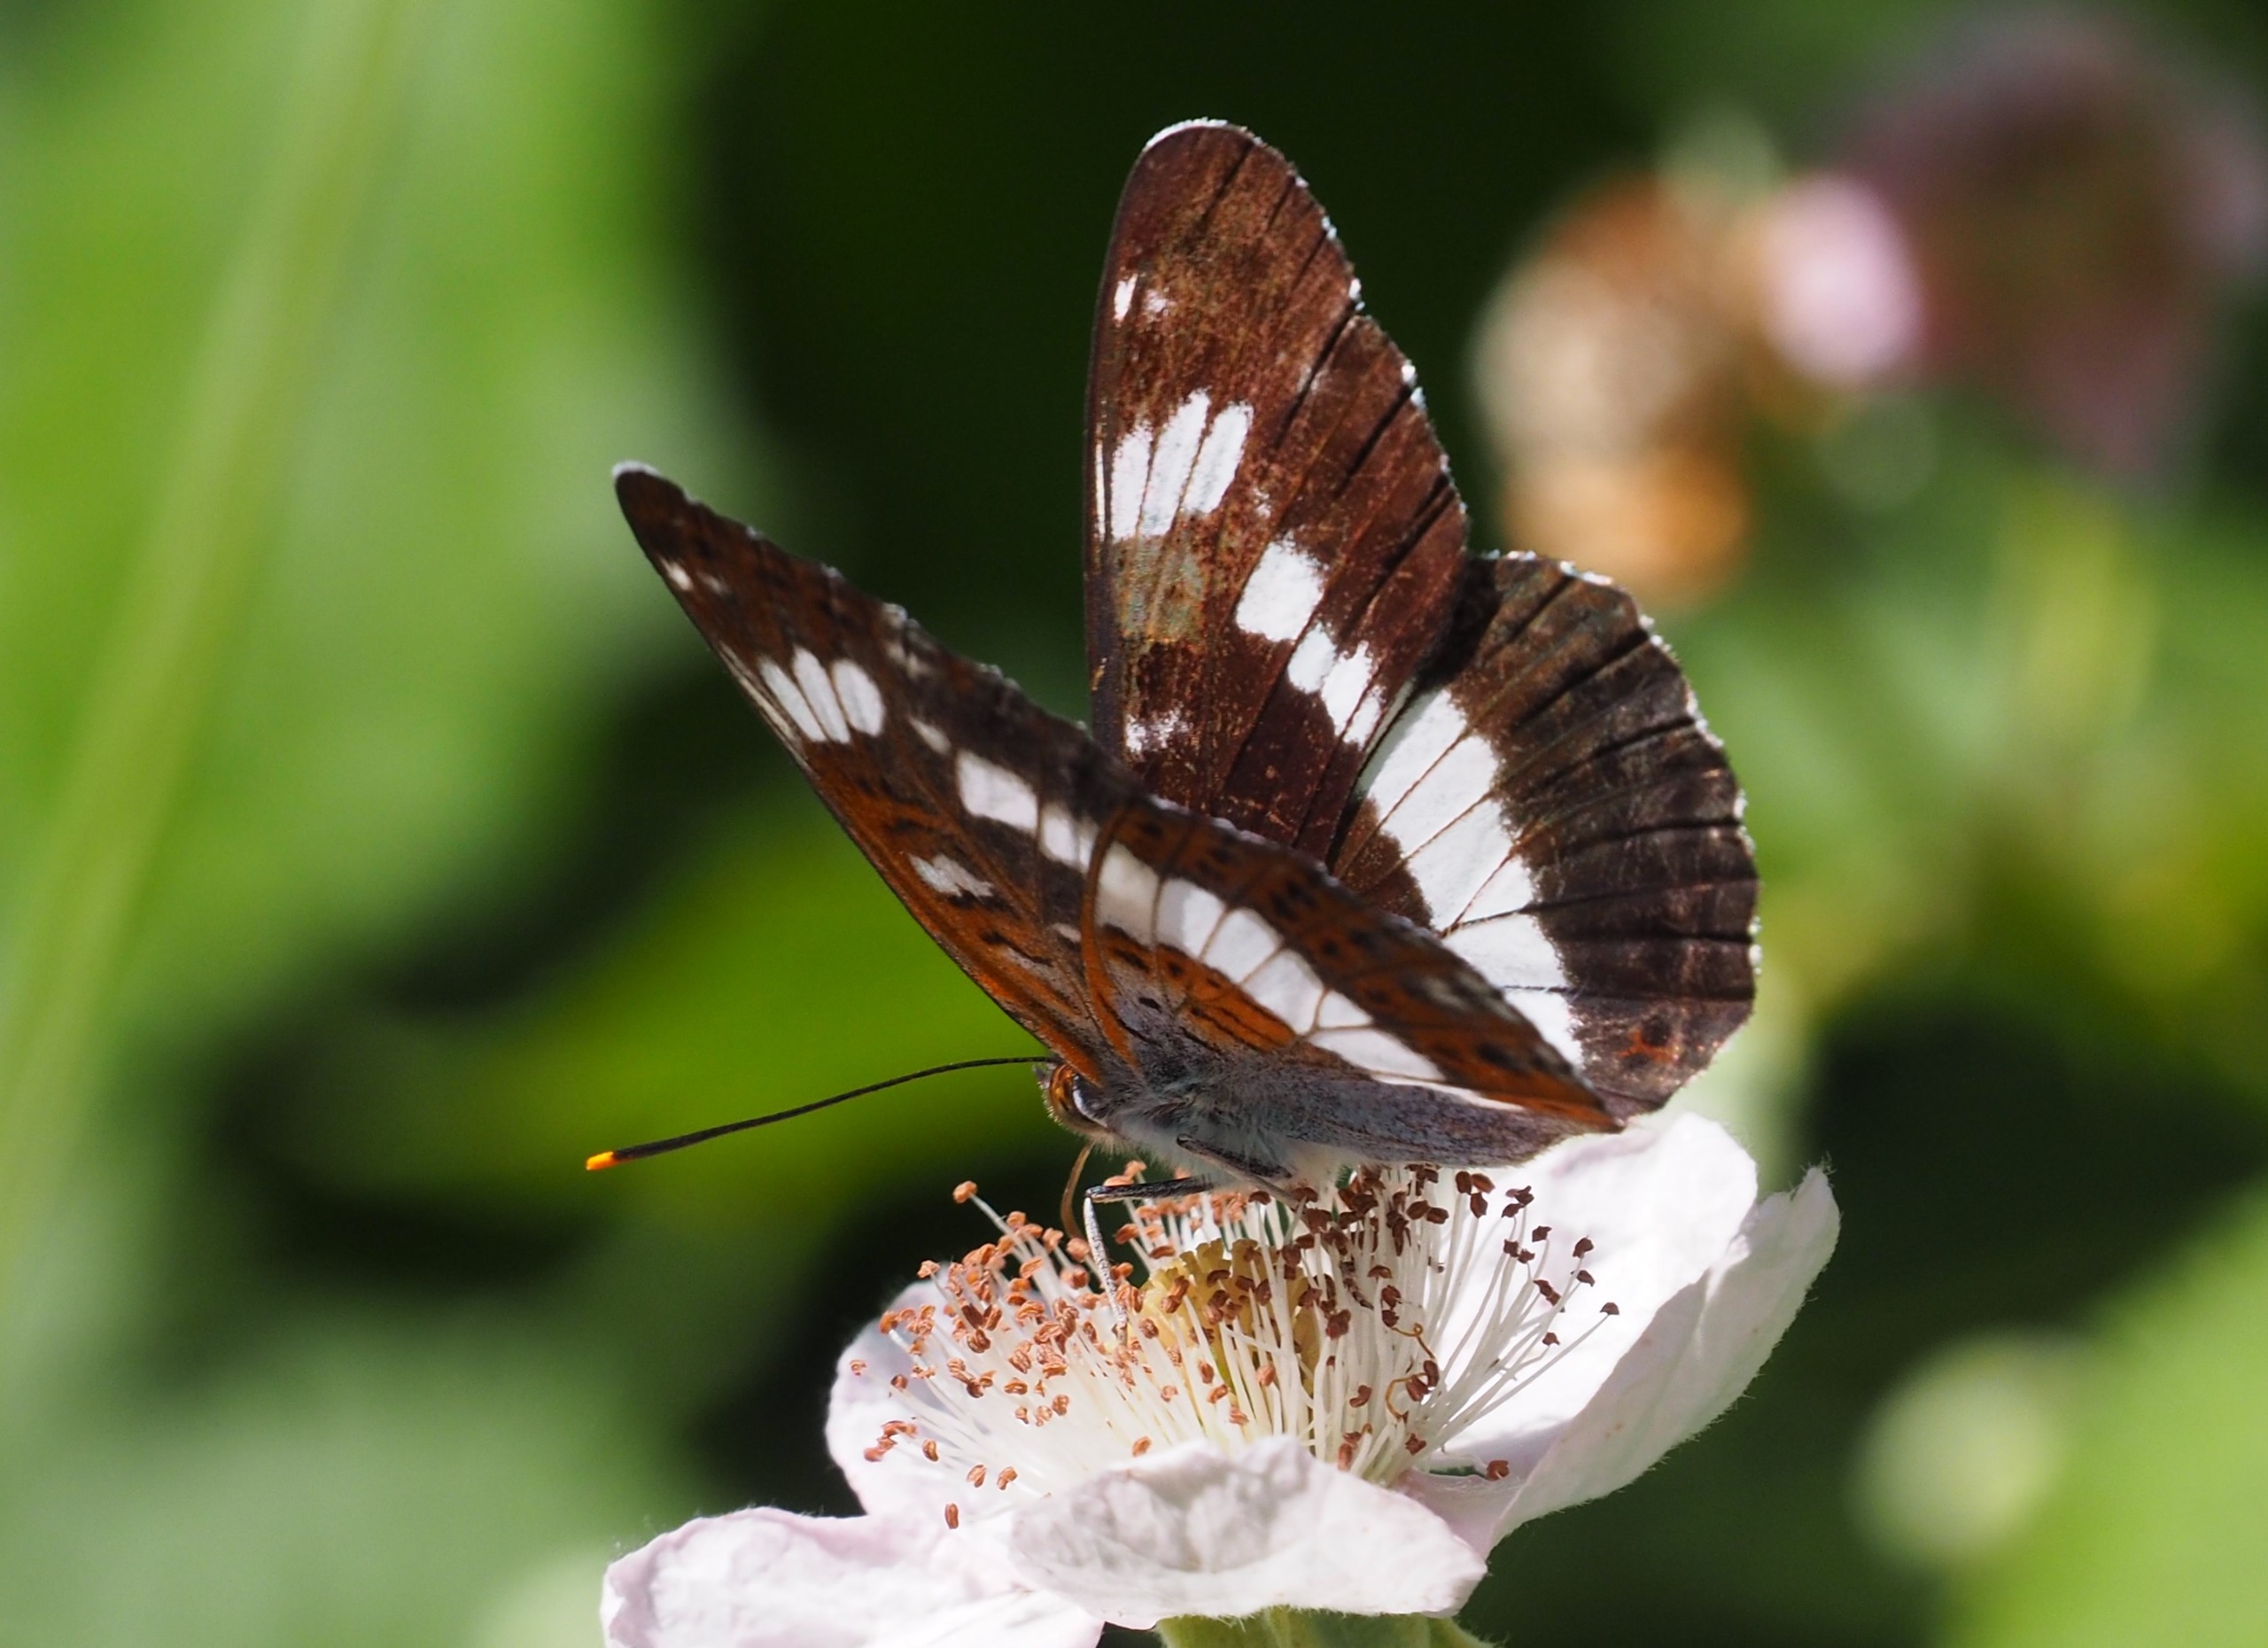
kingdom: Animalia
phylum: Arthropoda
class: Insecta
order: Lepidoptera
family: Nymphalidae
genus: Ladoga
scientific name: Ladoga camilla
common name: Hvid admiral
